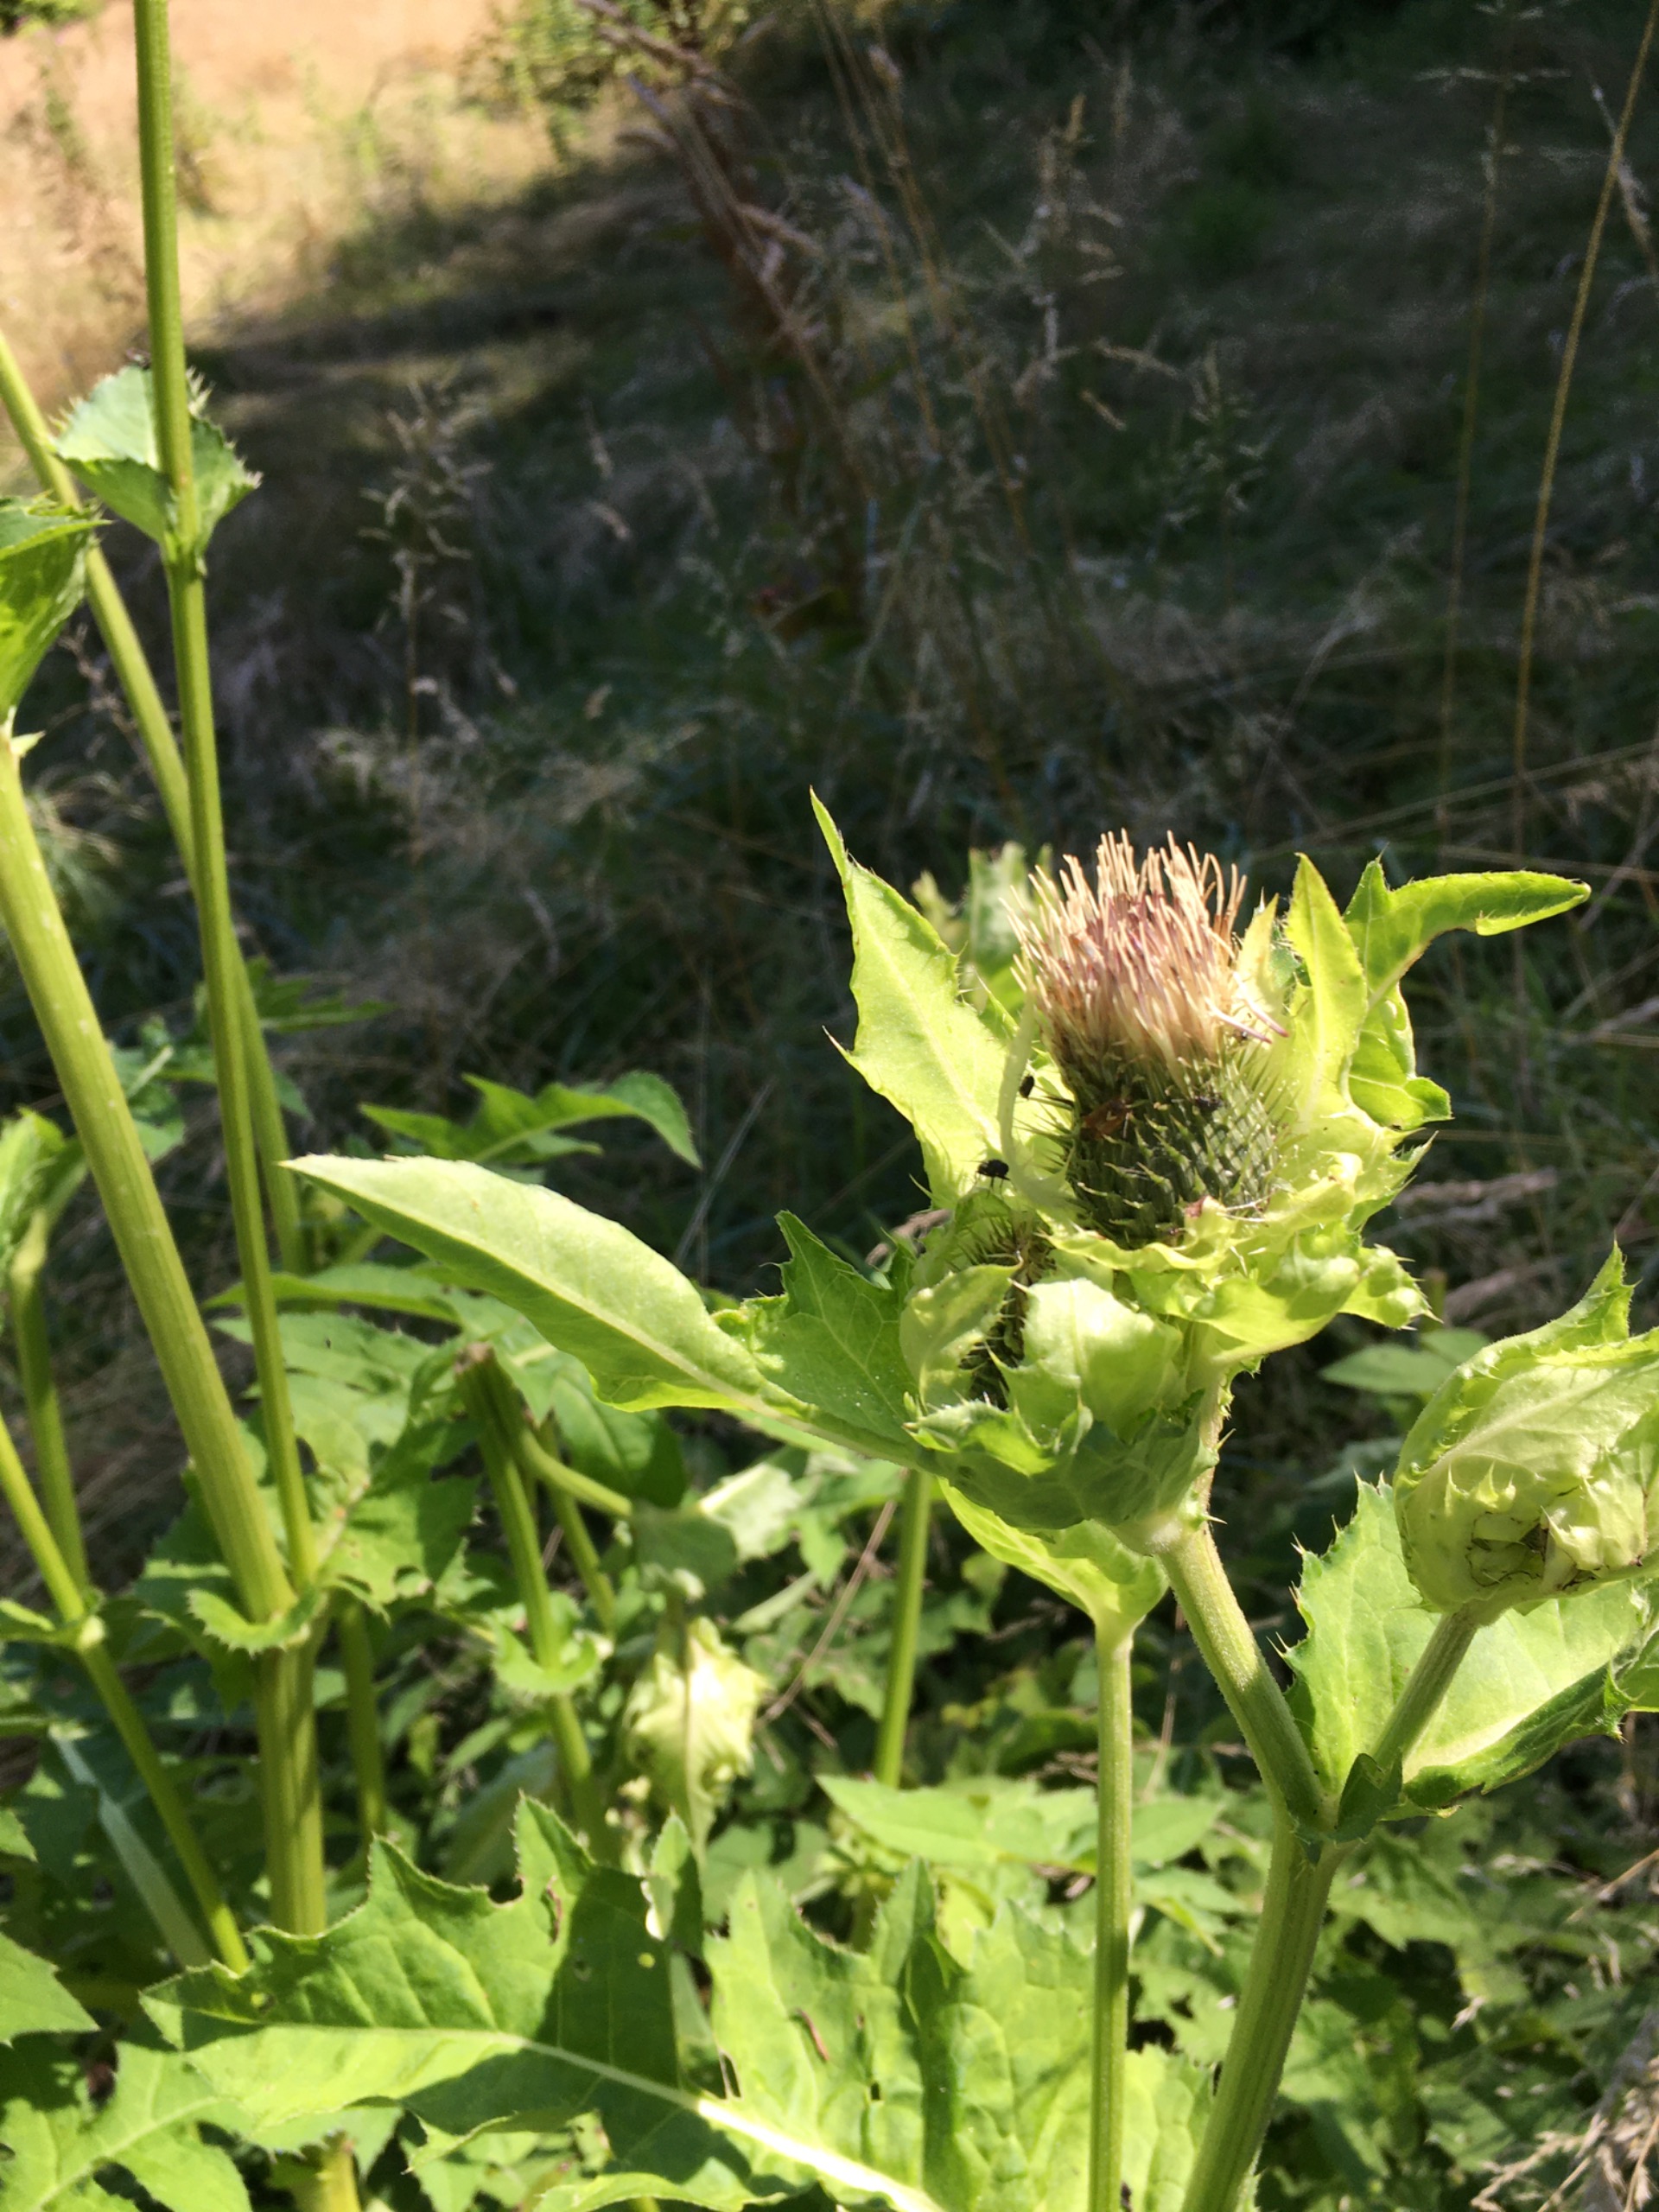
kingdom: Plantae
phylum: Tracheophyta
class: Magnoliopsida
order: Asterales
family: Asteraceae
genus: Cirsium
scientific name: Cirsium oleraceum
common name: Kål-tidsel
